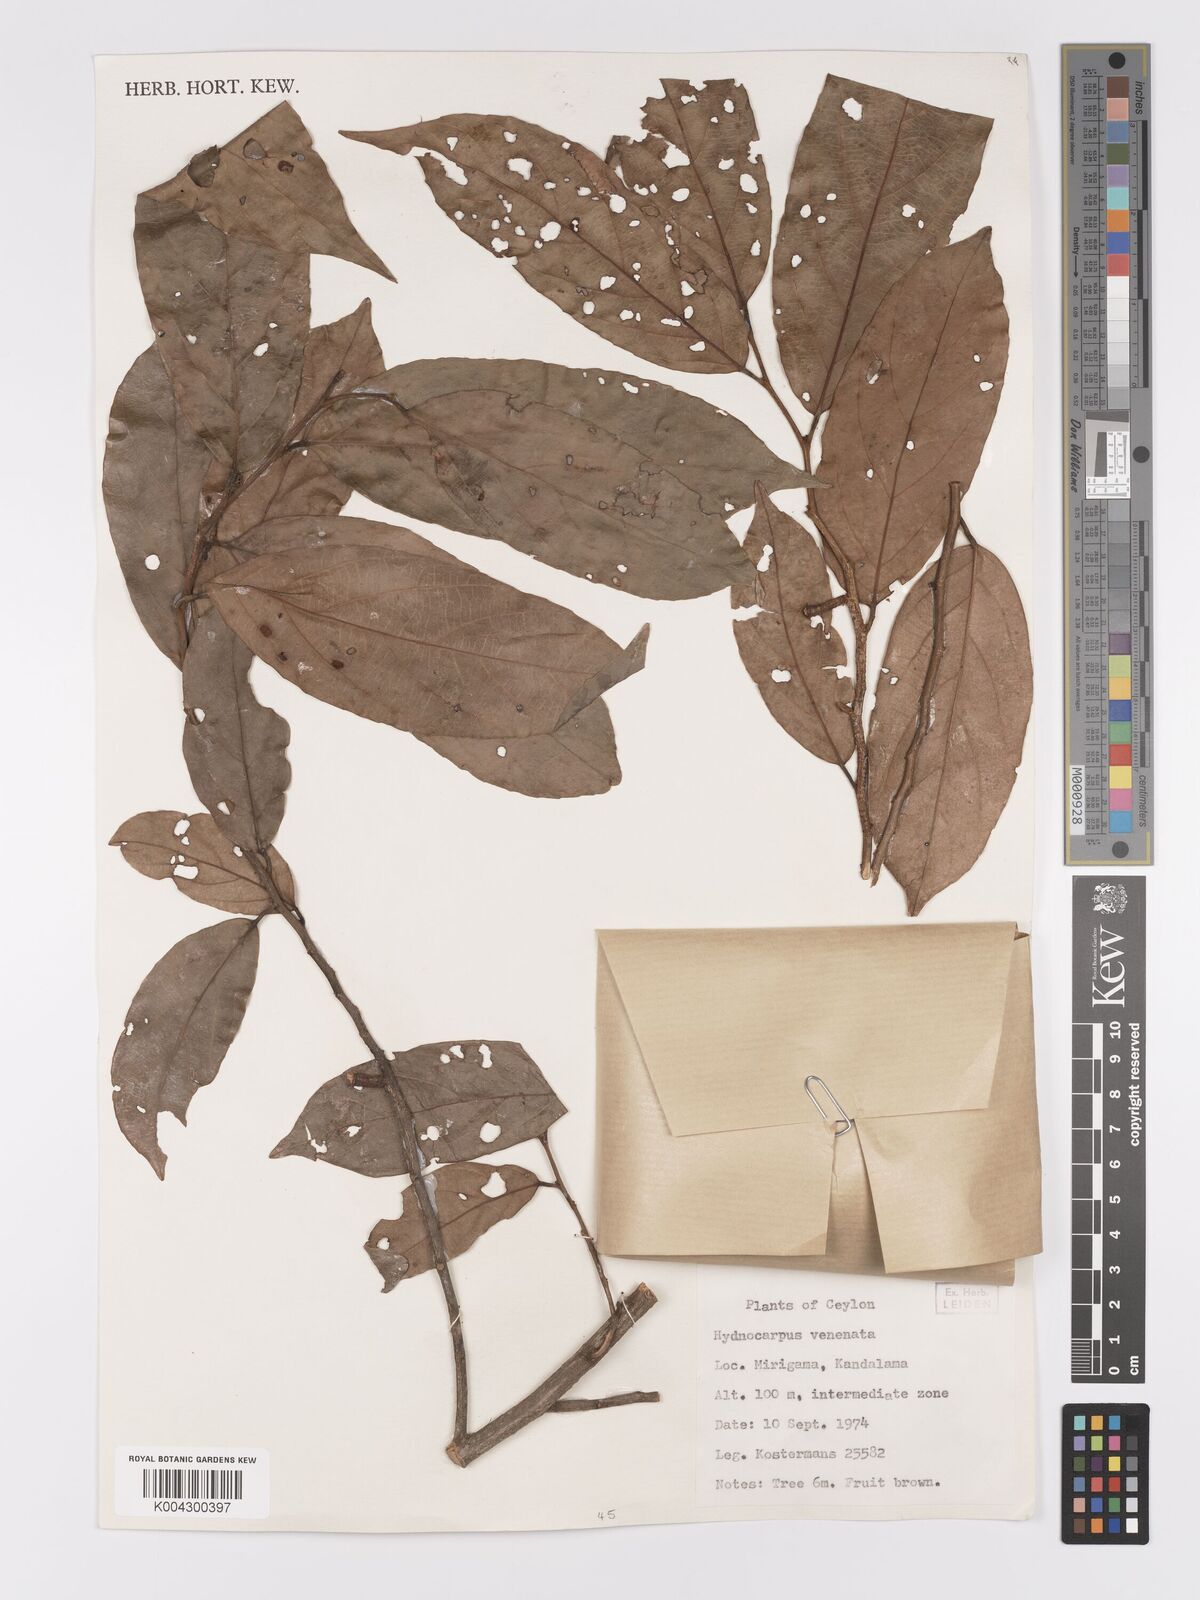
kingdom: Plantae
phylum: Tracheophyta
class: Magnoliopsida
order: Malpighiales
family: Achariaceae
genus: Hydnocarpus
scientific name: Hydnocarpus venenatus
